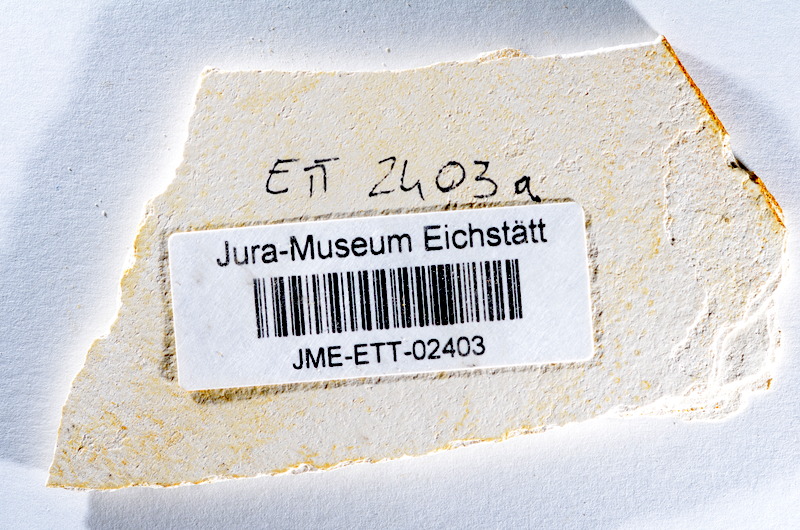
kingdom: Animalia
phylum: Chordata
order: Salmoniformes
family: Orthogonikleithridae
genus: Orthogonikleithrus
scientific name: Orthogonikleithrus hoelli
